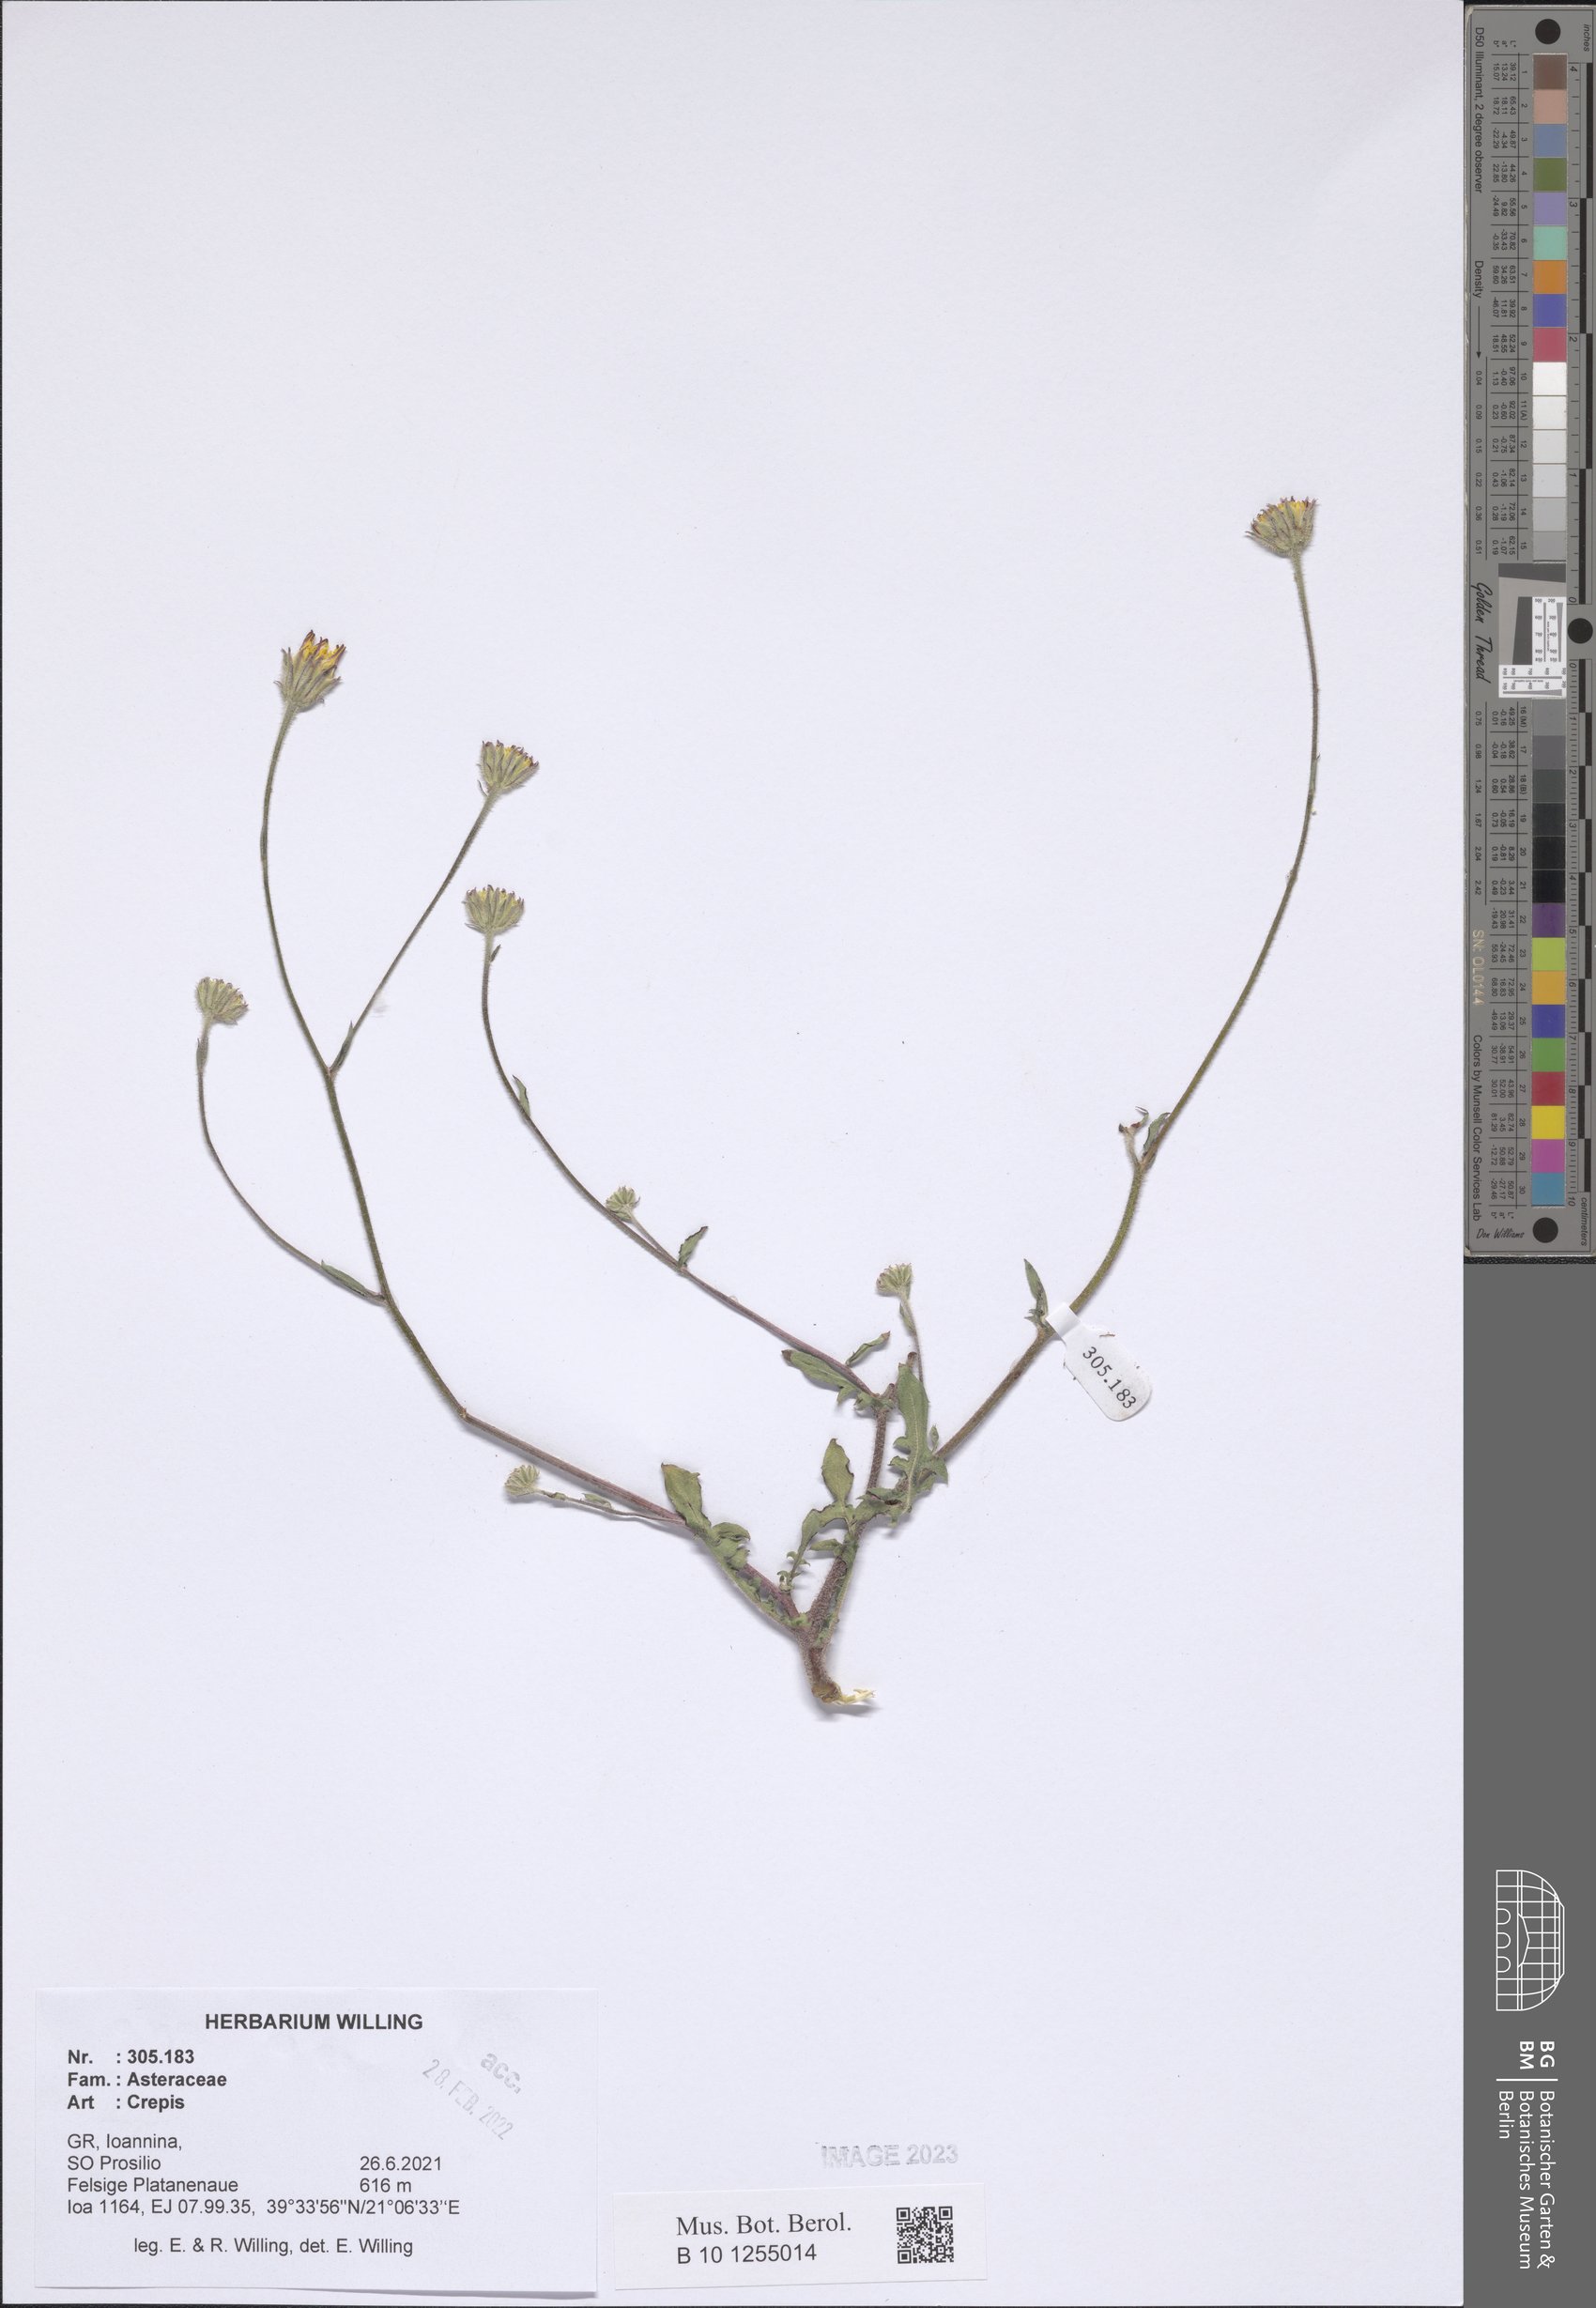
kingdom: Plantae
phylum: Tracheophyta
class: Magnoliopsida
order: Asterales
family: Asteraceae
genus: Crepis
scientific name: Crepis
